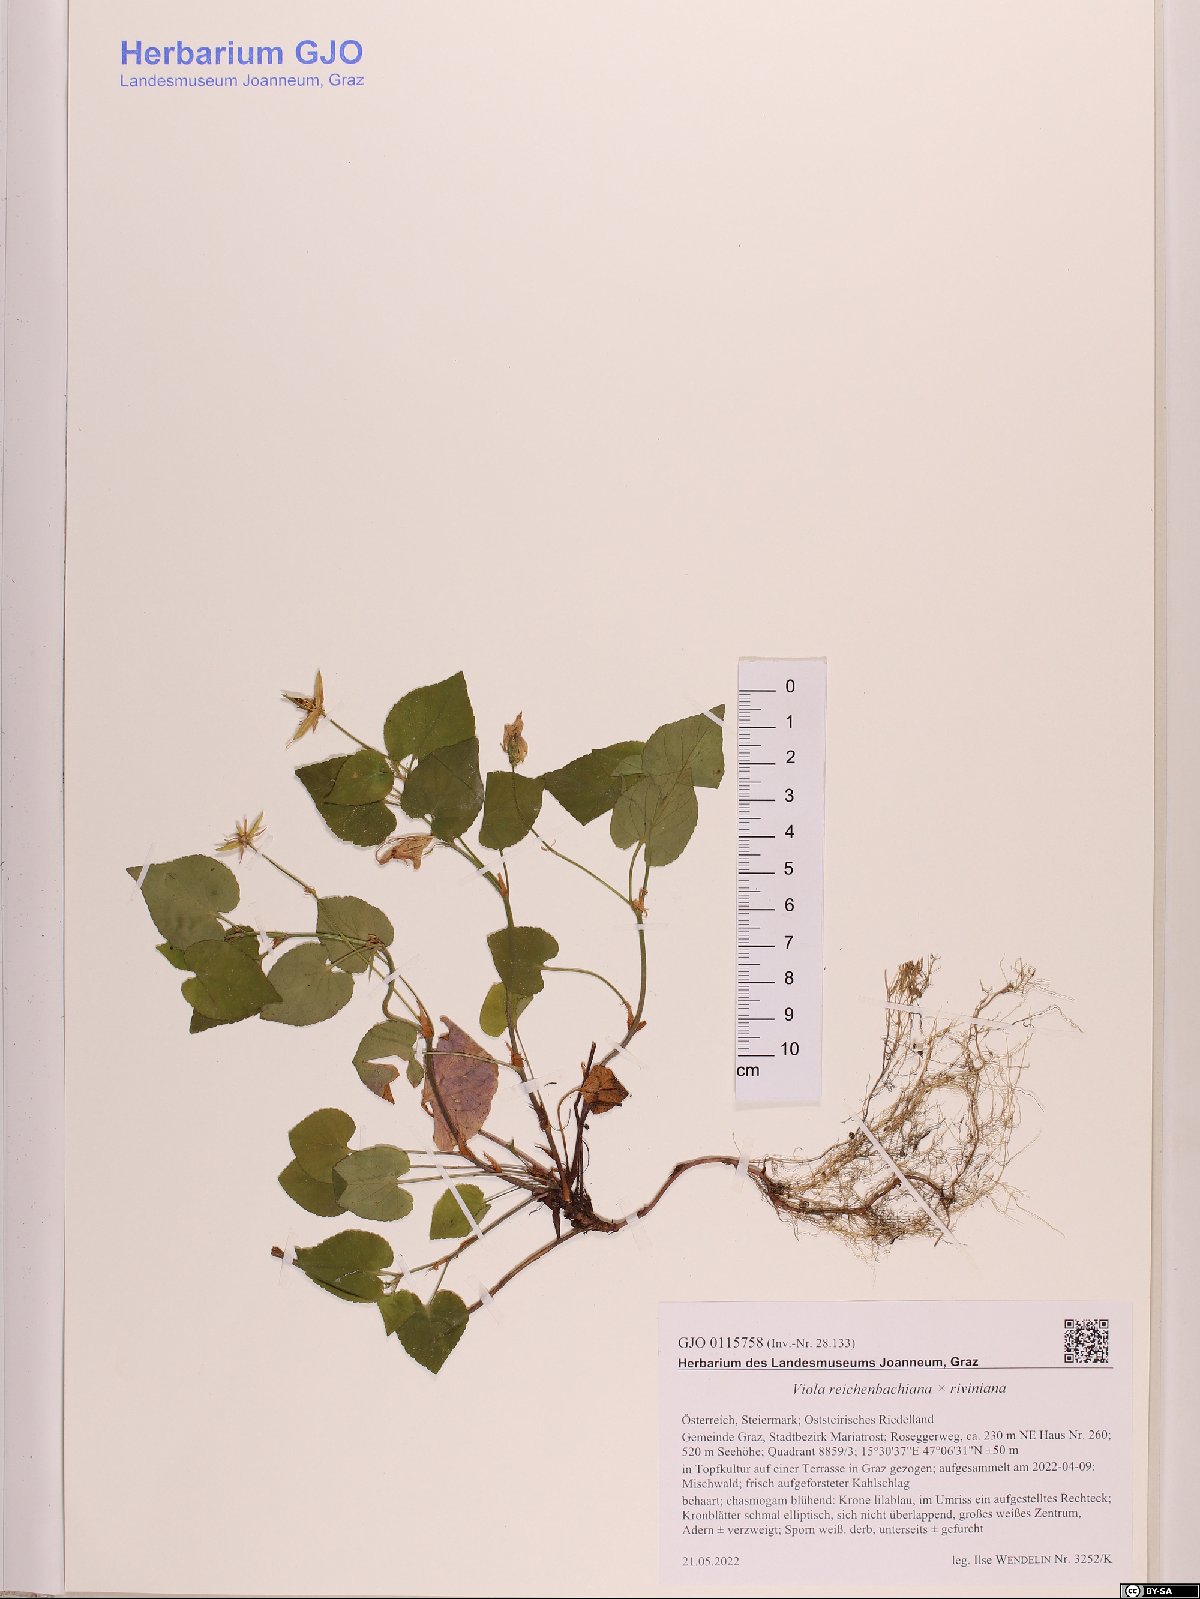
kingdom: Plantae
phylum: Tracheophyta
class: Magnoliopsida
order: Malpighiales
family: Violaceae
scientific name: Violaceae
